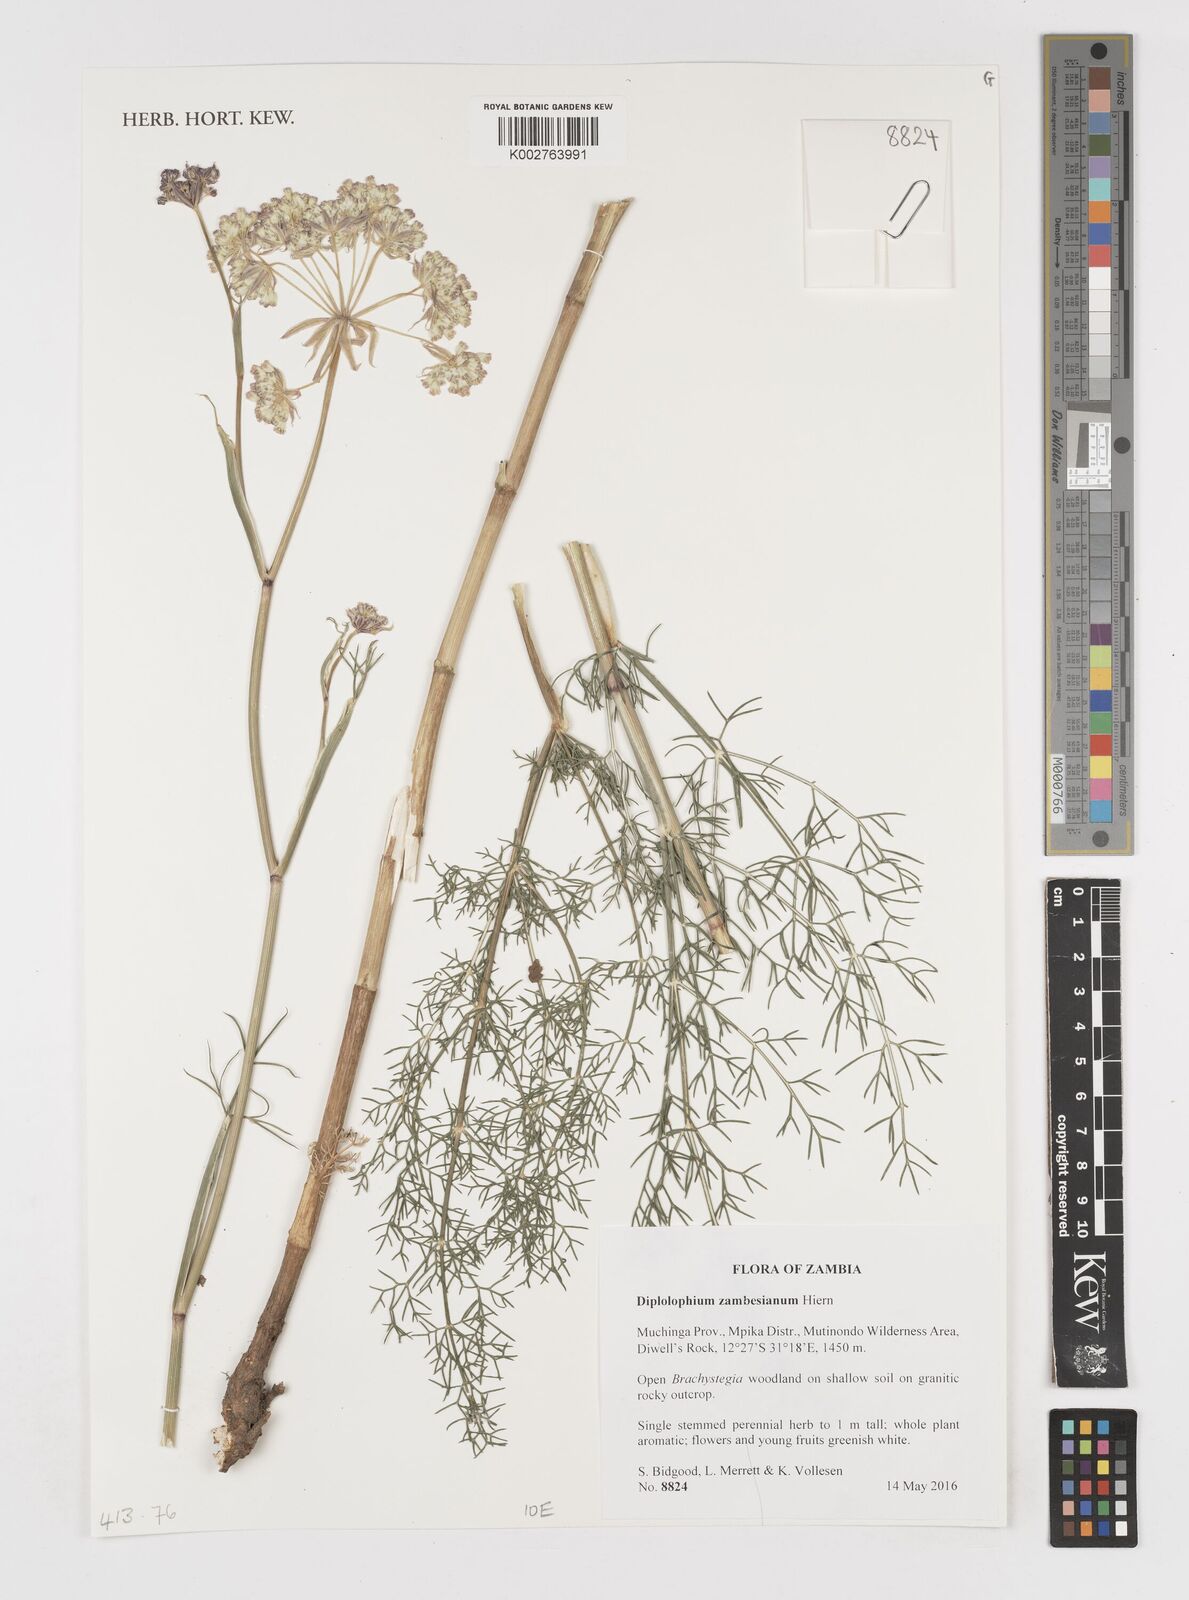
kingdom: Plantae
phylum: Tracheophyta
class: Magnoliopsida
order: Apiales
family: Apiaceae
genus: Diplolophium
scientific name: Diplolophium zambesianum
